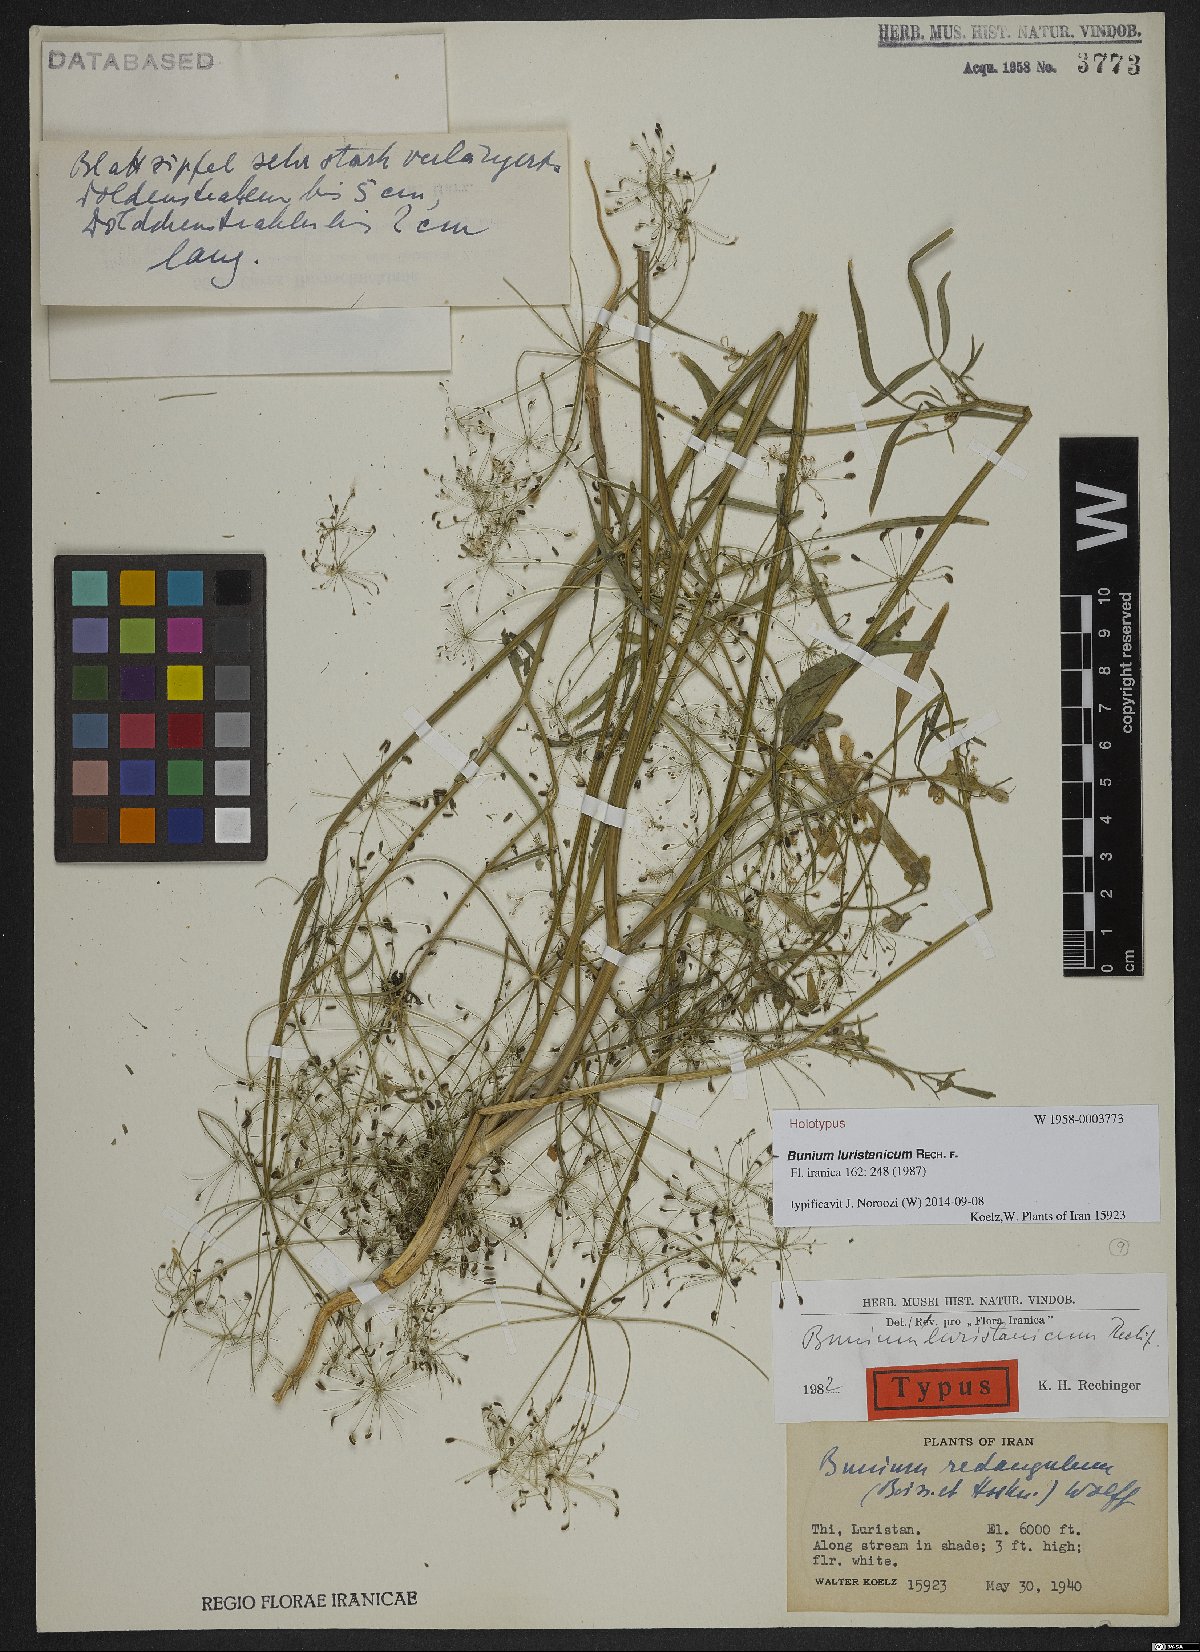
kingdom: Plantae
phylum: Tracheophyta
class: Magnoliopsida
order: Apiales
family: Apiaceae
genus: Bunium
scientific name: Bunium luristanicum
